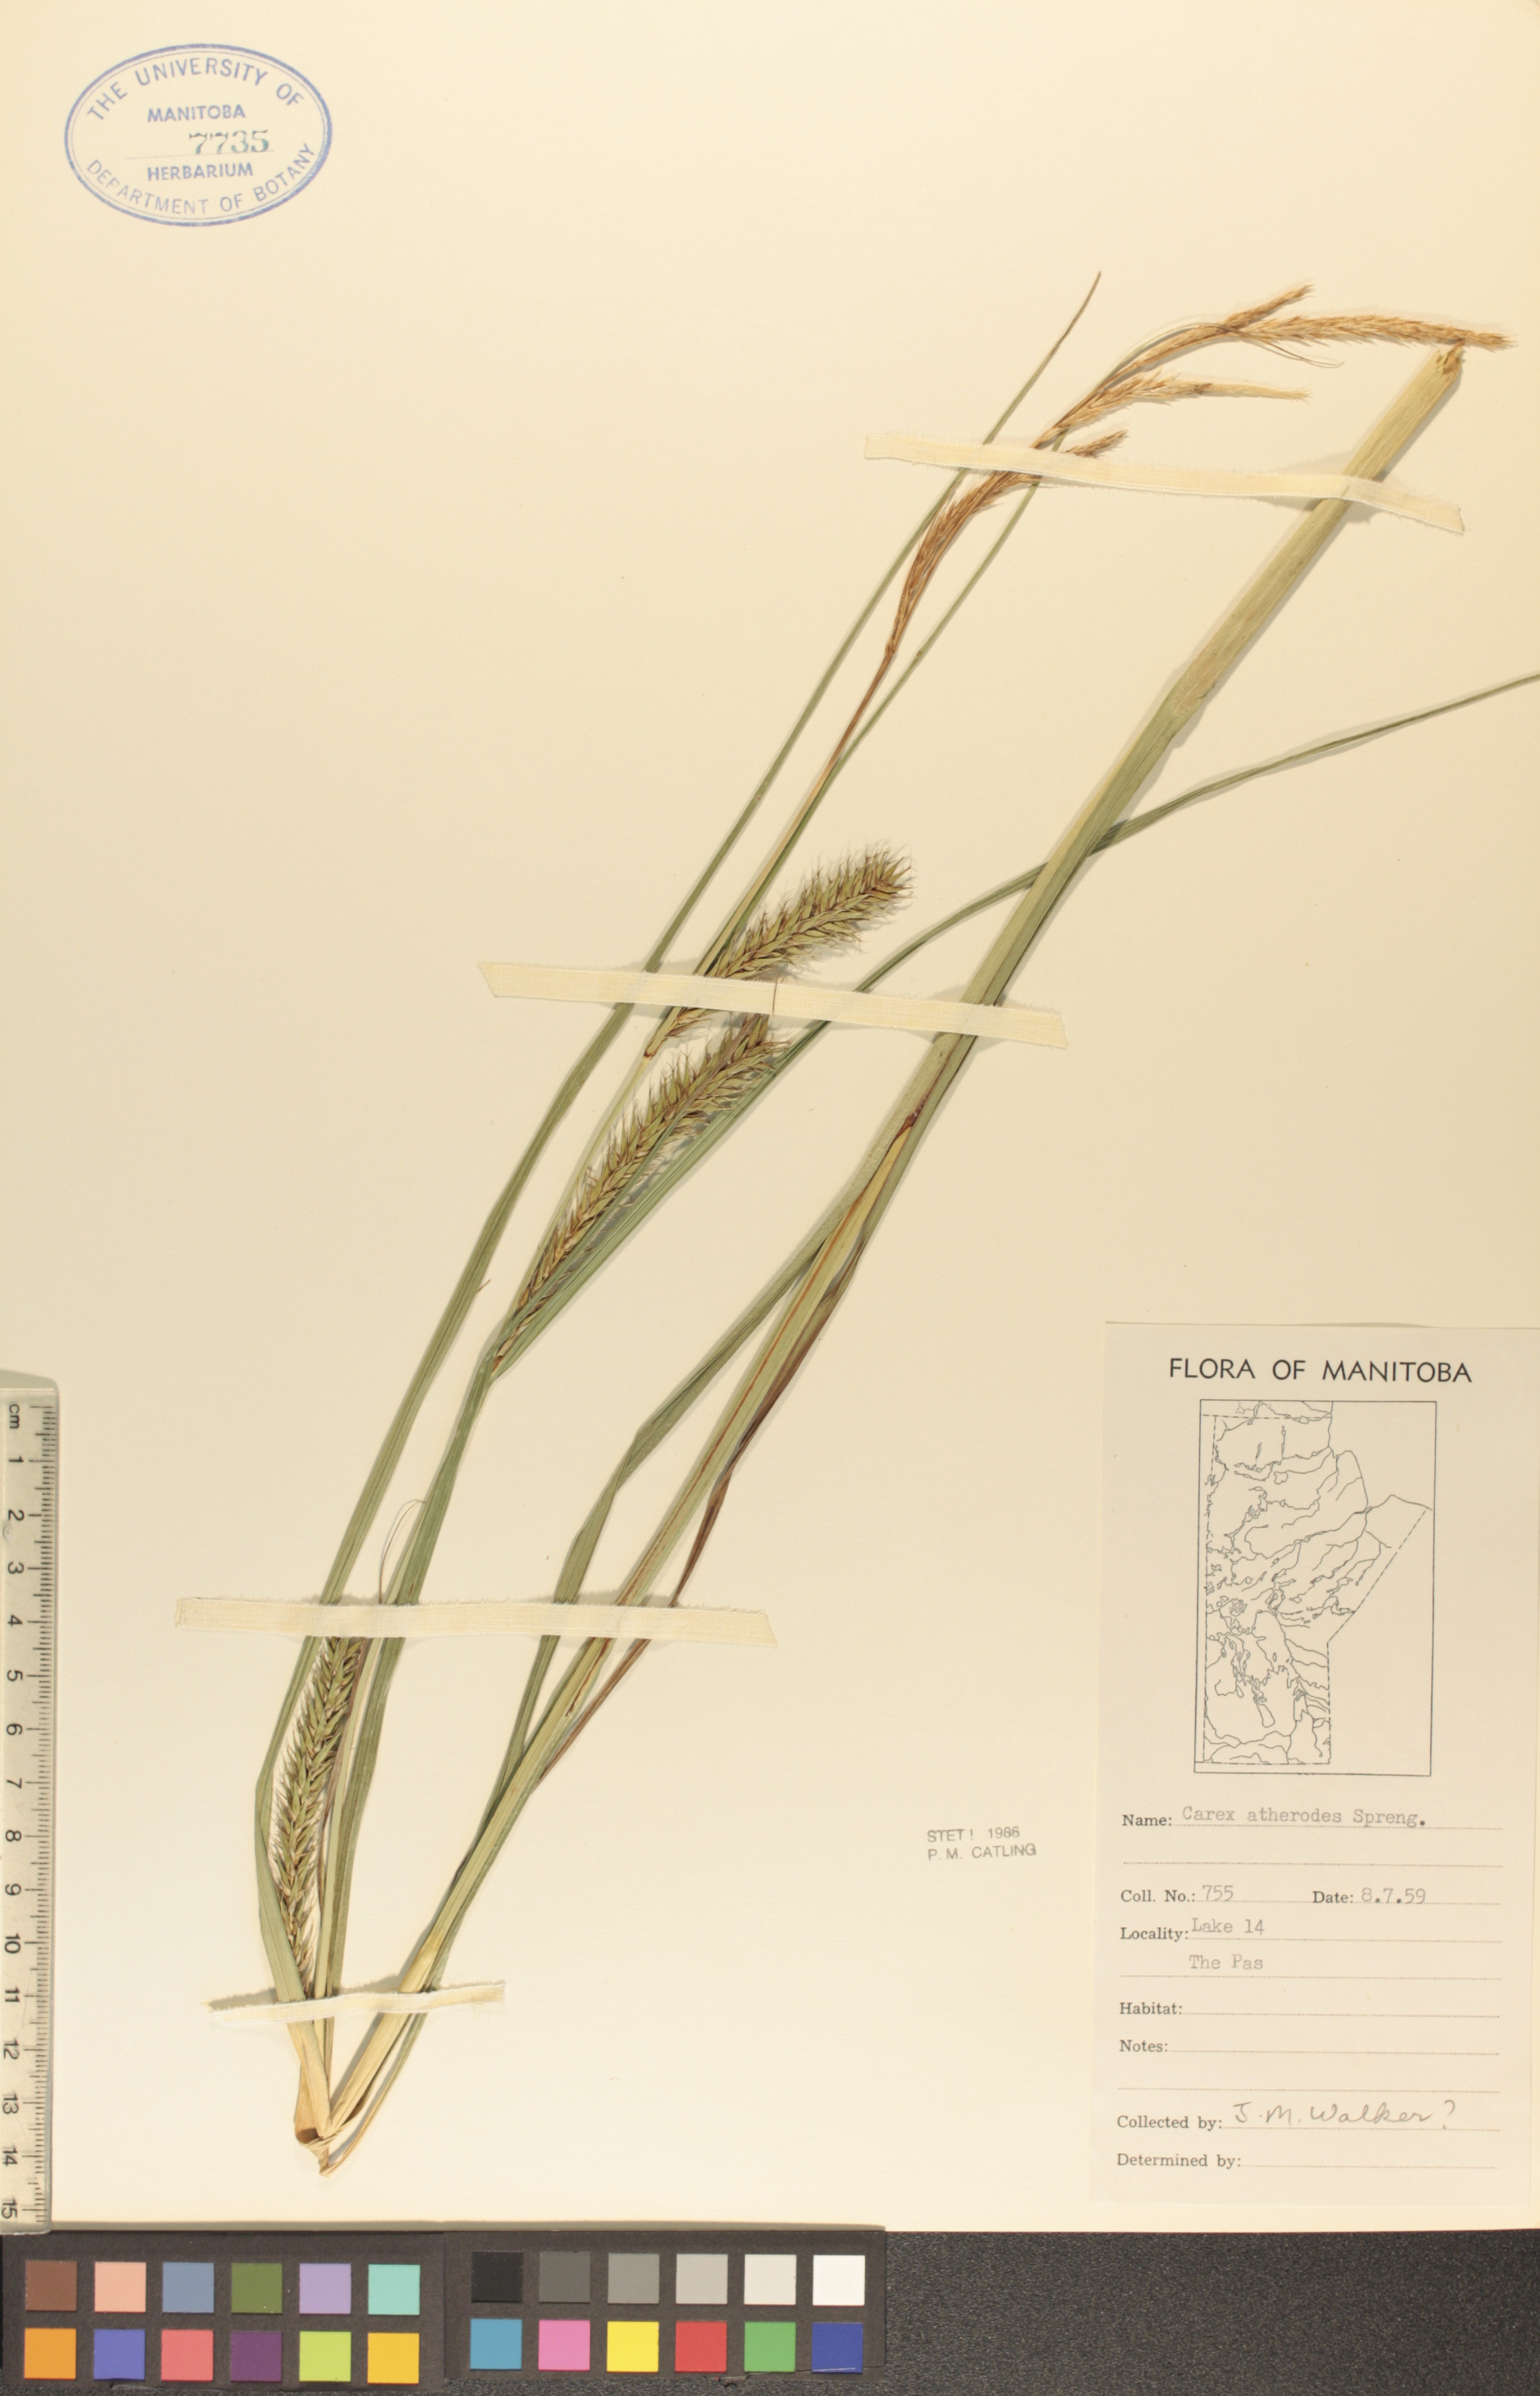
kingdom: Plantae
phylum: Tracheophyta
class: Liliopsida
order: Poales
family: Cyperaceae
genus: Carex
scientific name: Carex atherodes
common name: Wheat sedge
